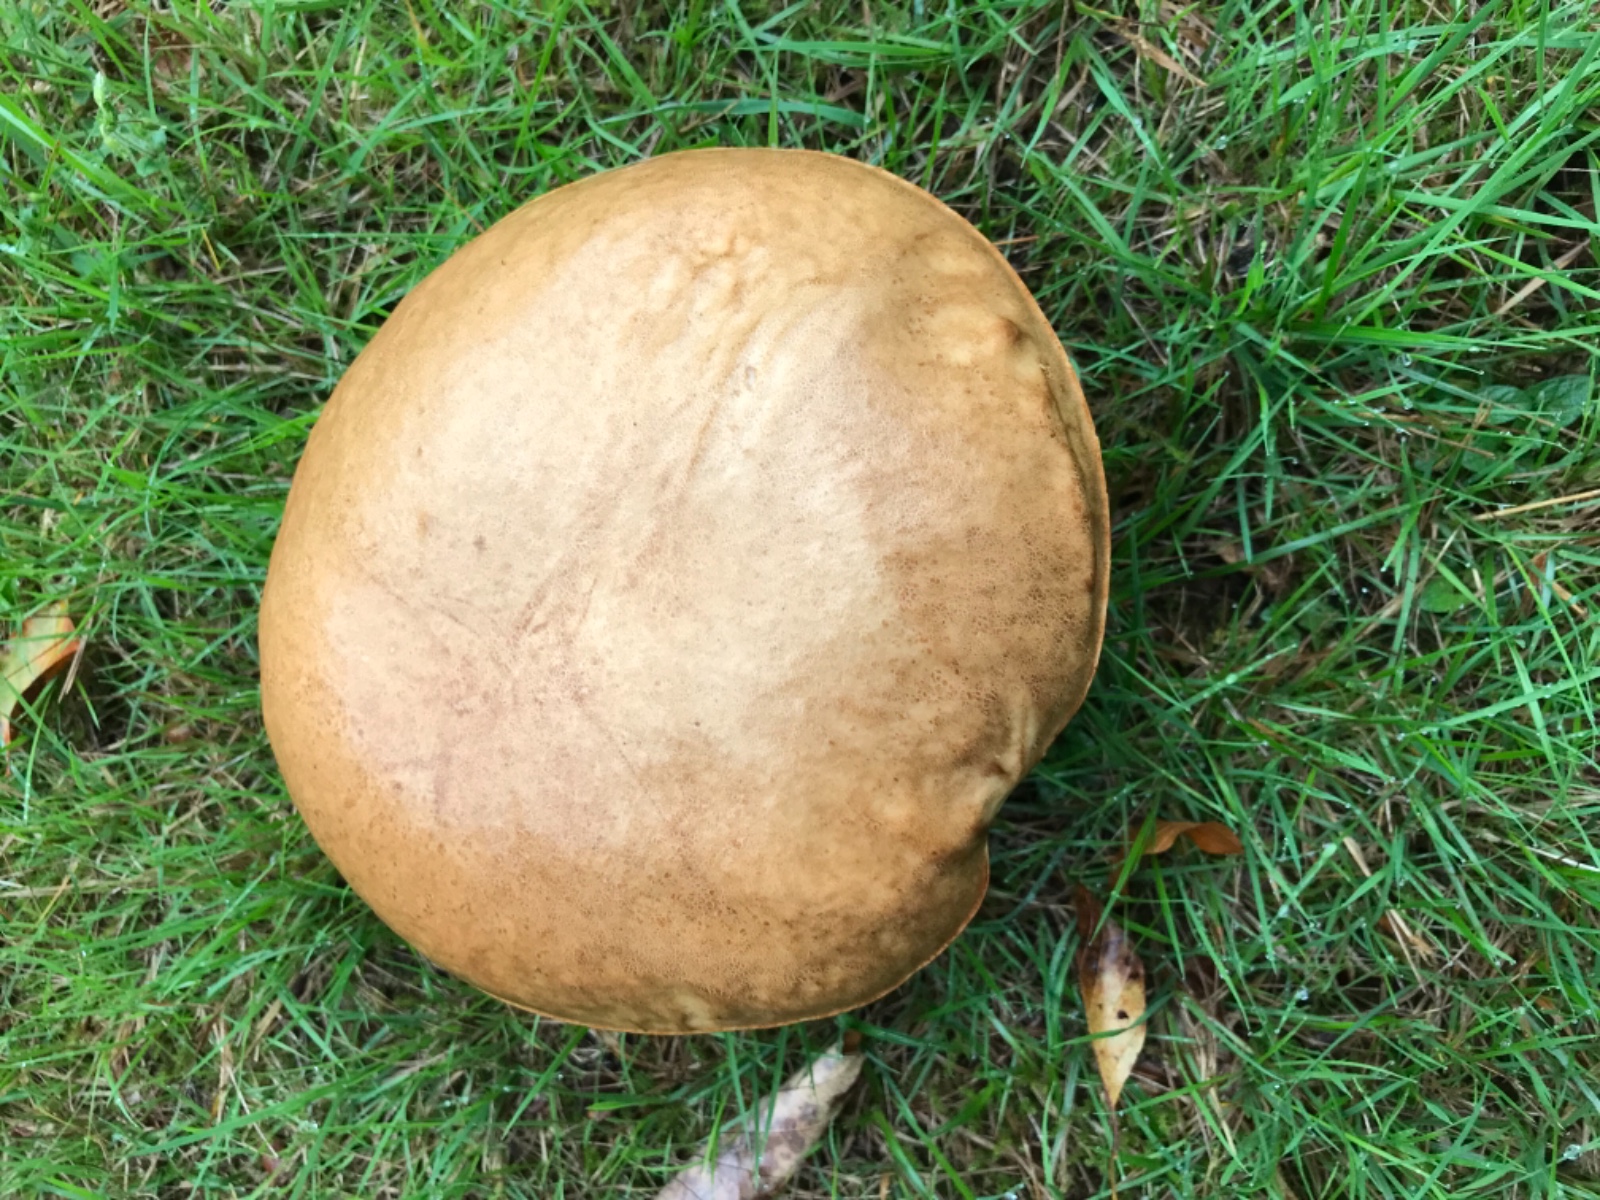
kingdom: Fungi
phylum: Basidiomycota
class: Agaricomycetes
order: Boletales
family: Boletaceae
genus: Boletus
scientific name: Boletus
